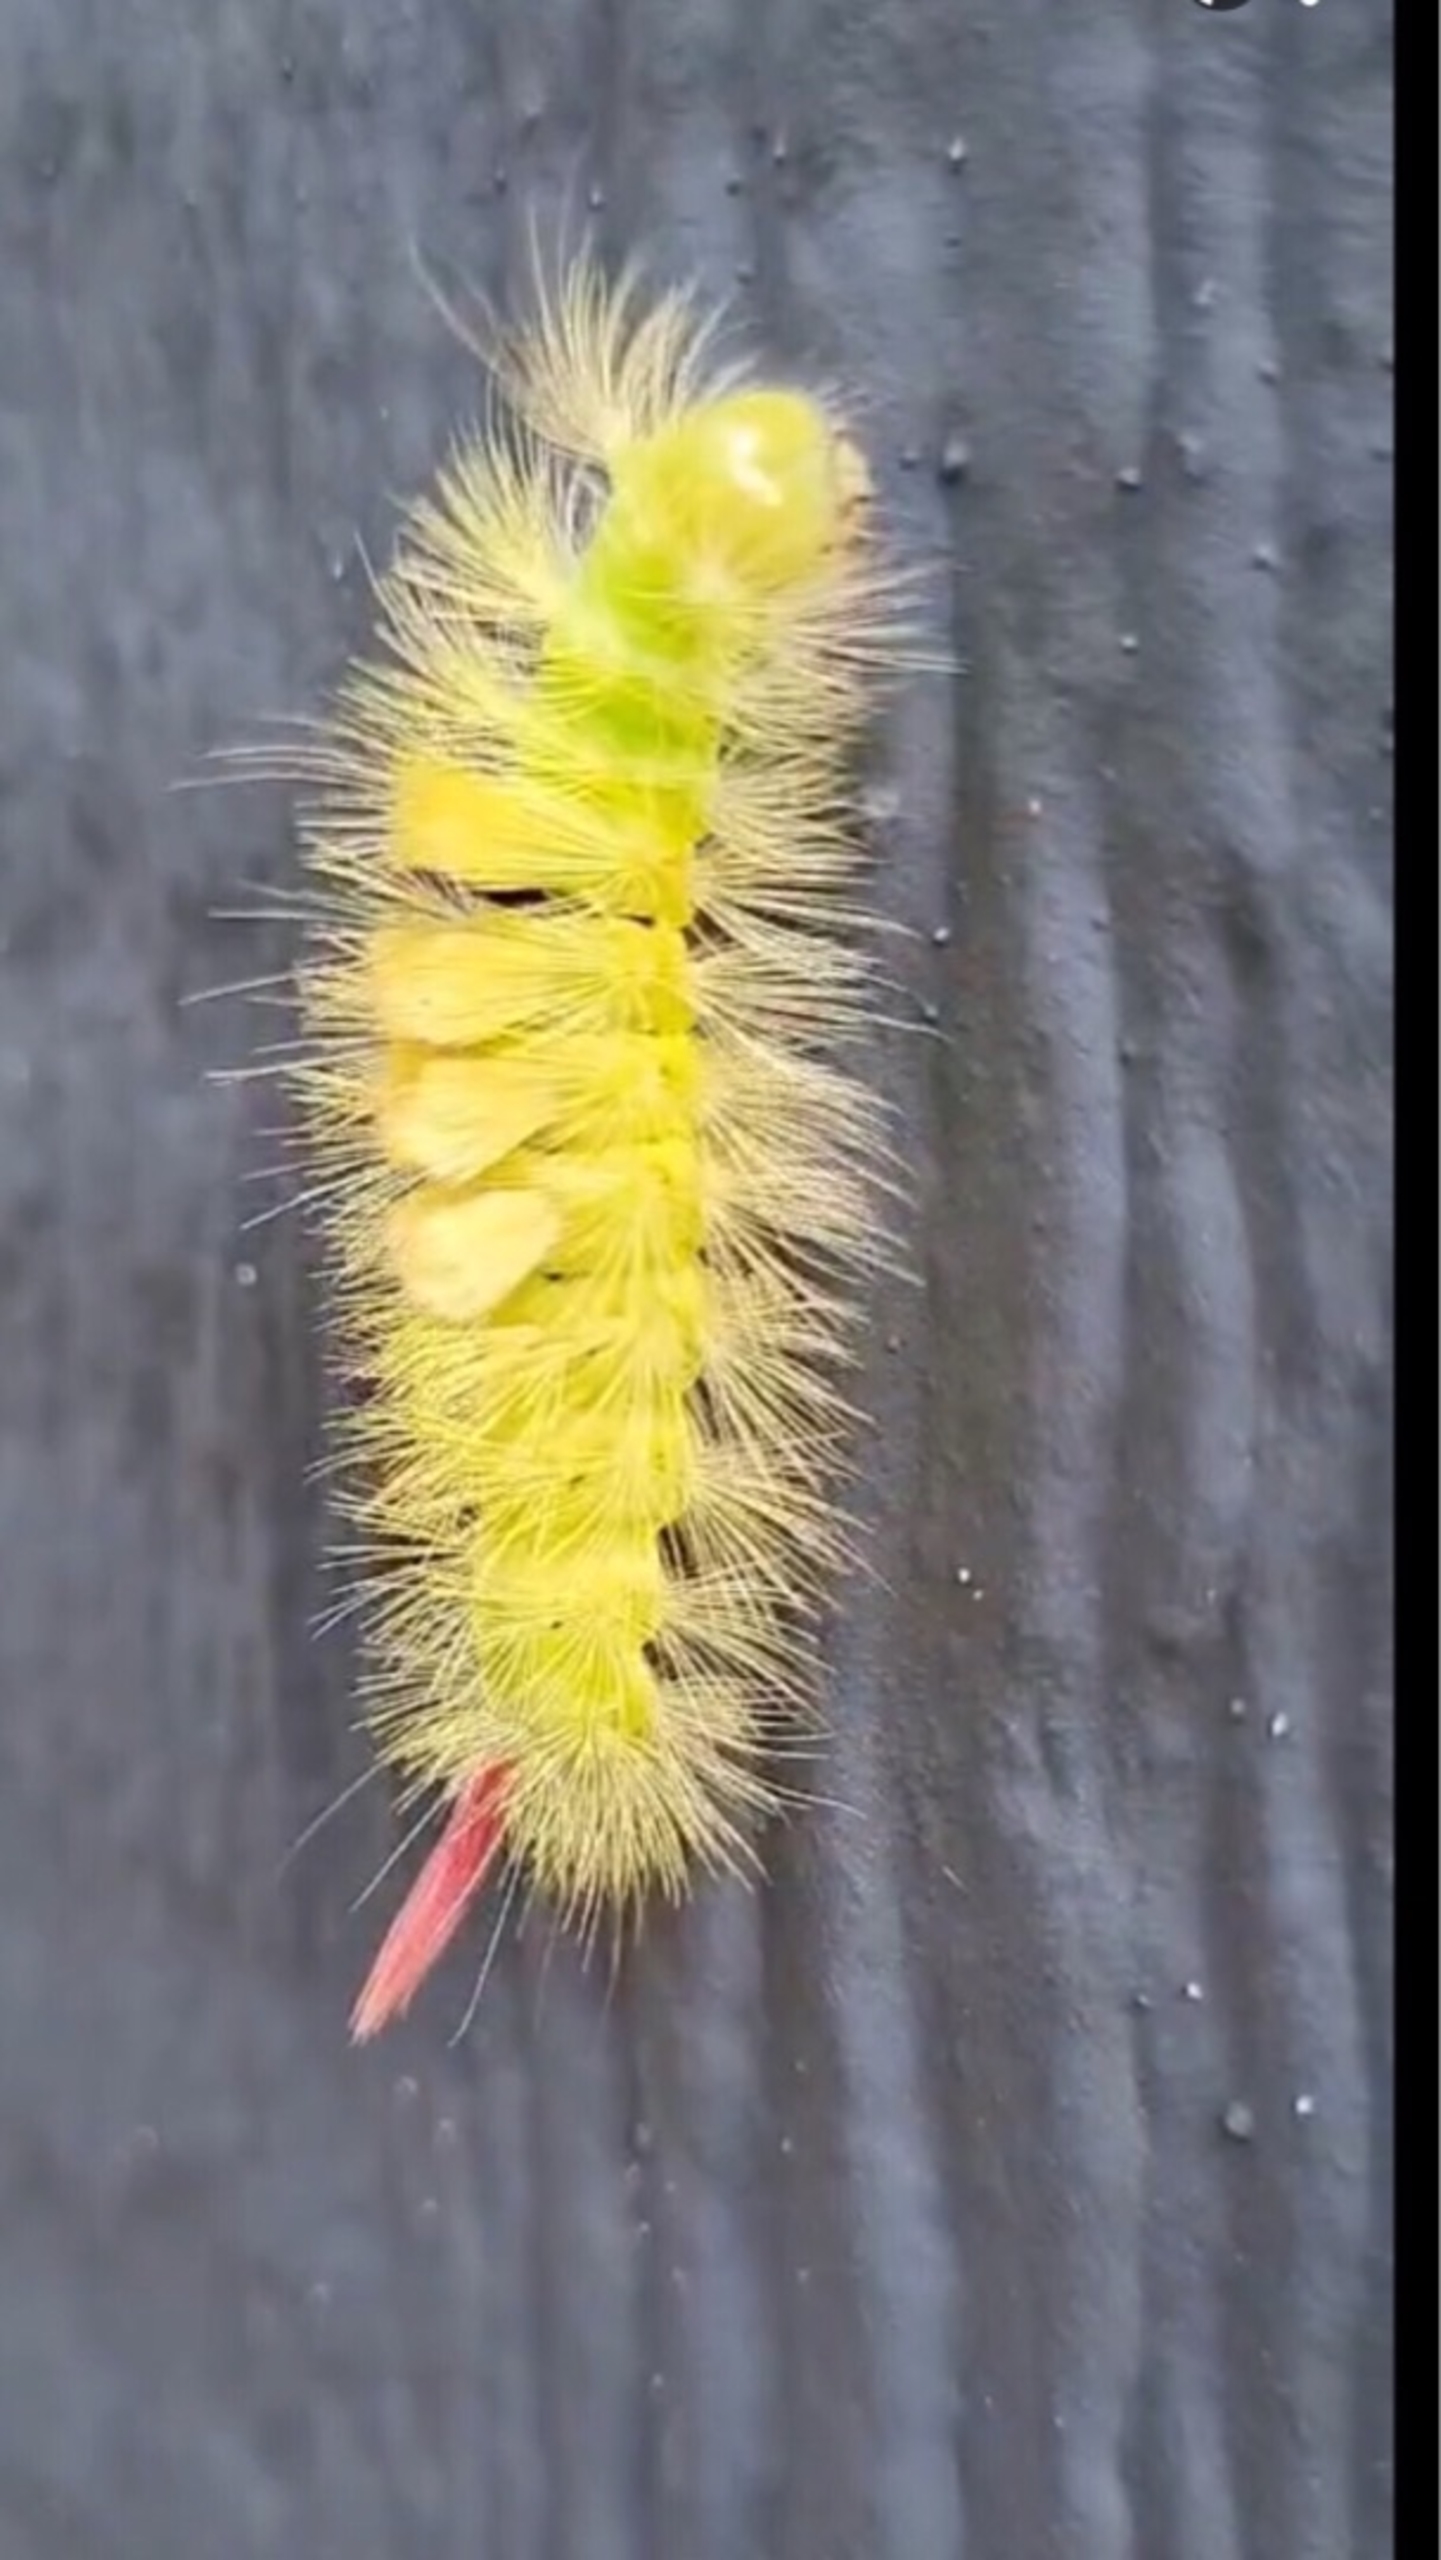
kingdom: Animalia
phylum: Arthropoda
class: Insecta
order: Lepidoptera
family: Erebidae
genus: Calliteara
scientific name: Calliteara pudibunda
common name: Bøgenonne
